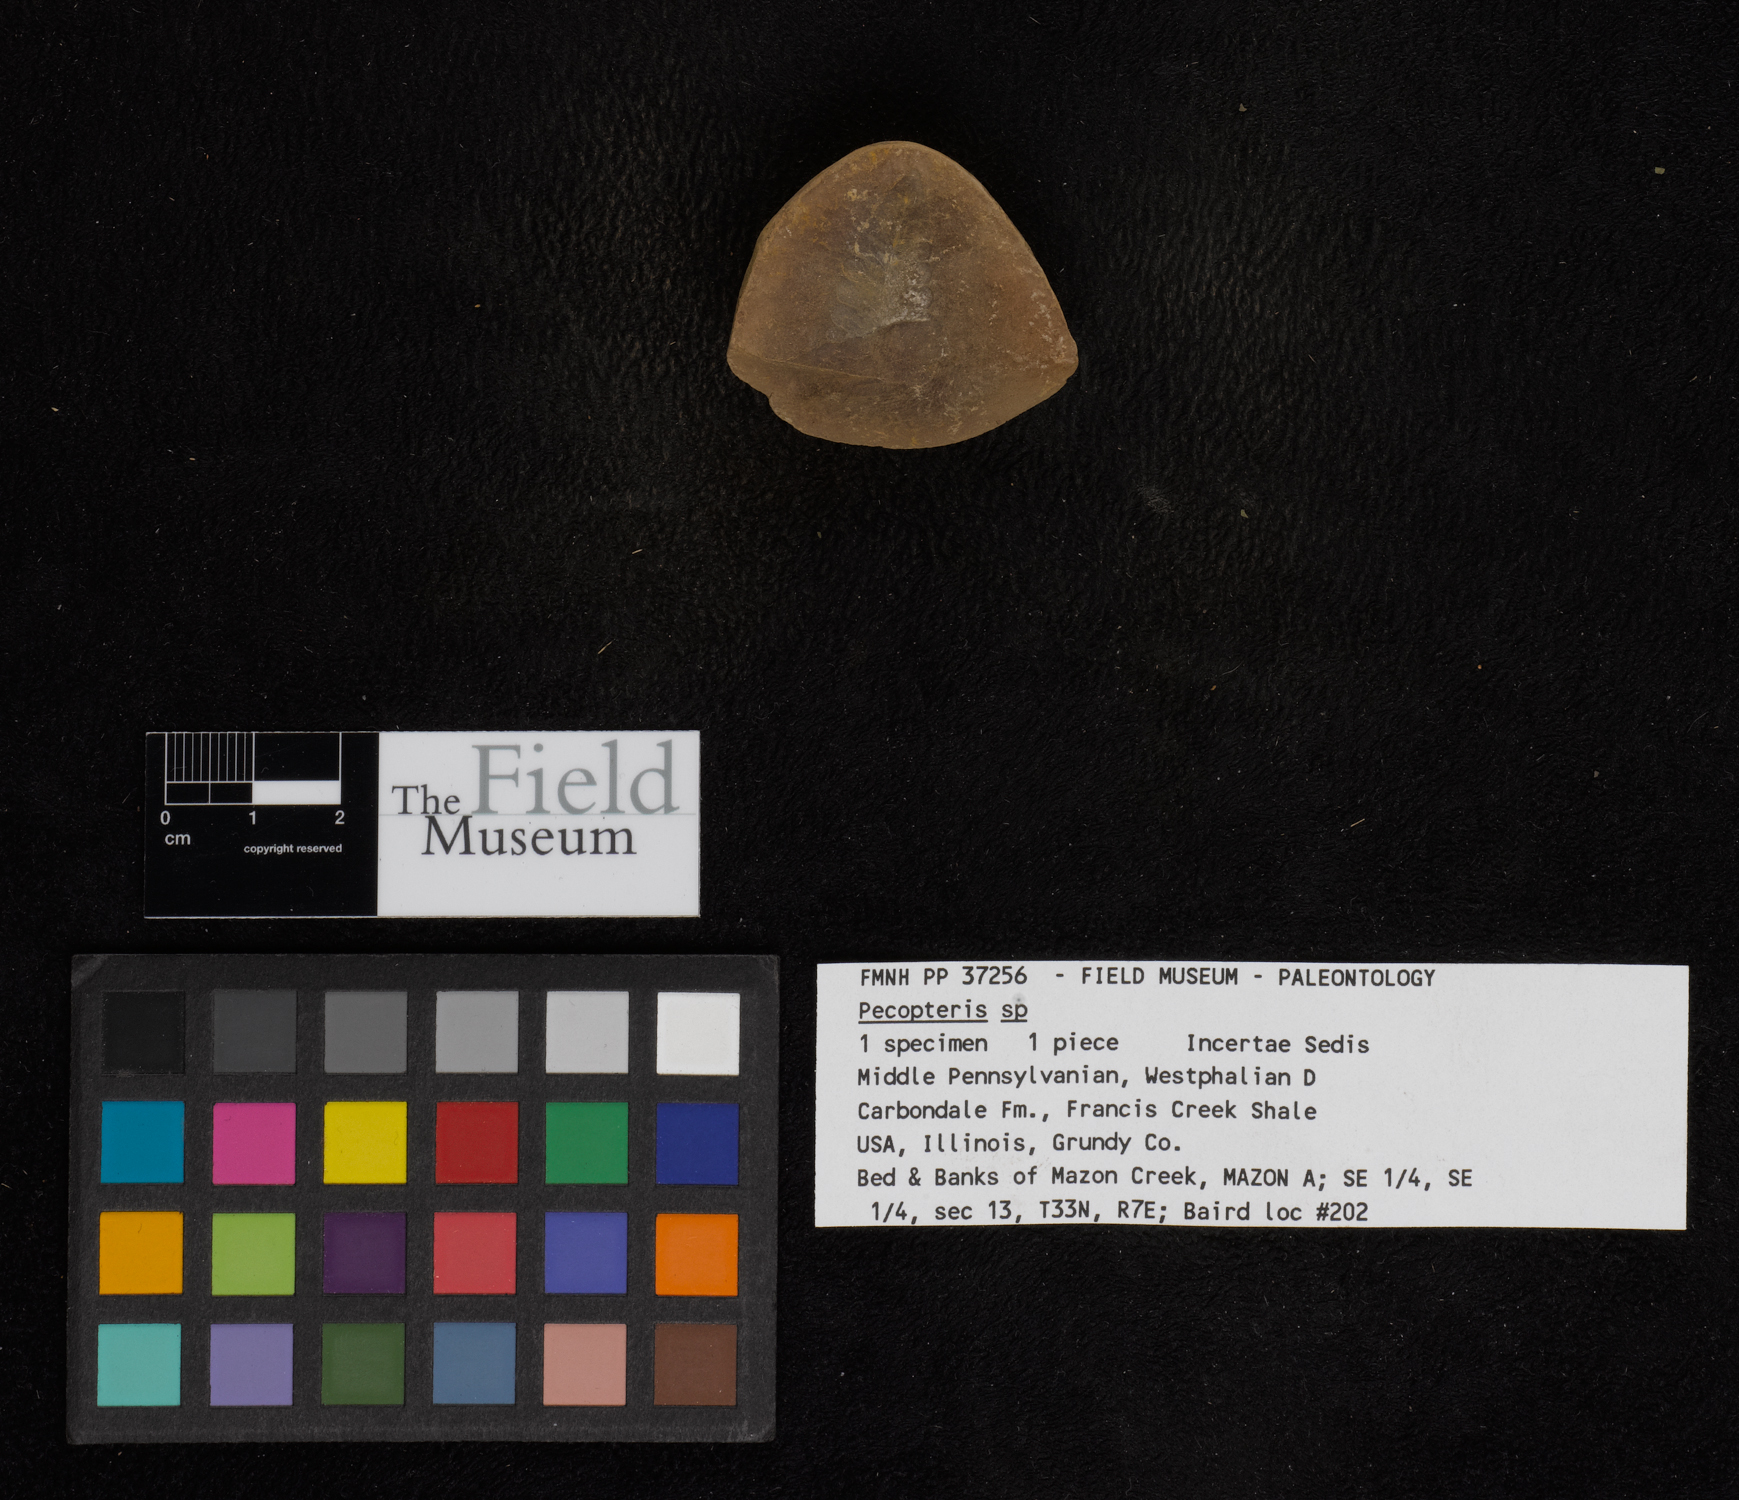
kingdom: Plantae
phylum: Tracheophyta
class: Polypodiopsida
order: Marattiales
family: Asterothecaceae
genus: Pecopteris
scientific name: Pecopteris
